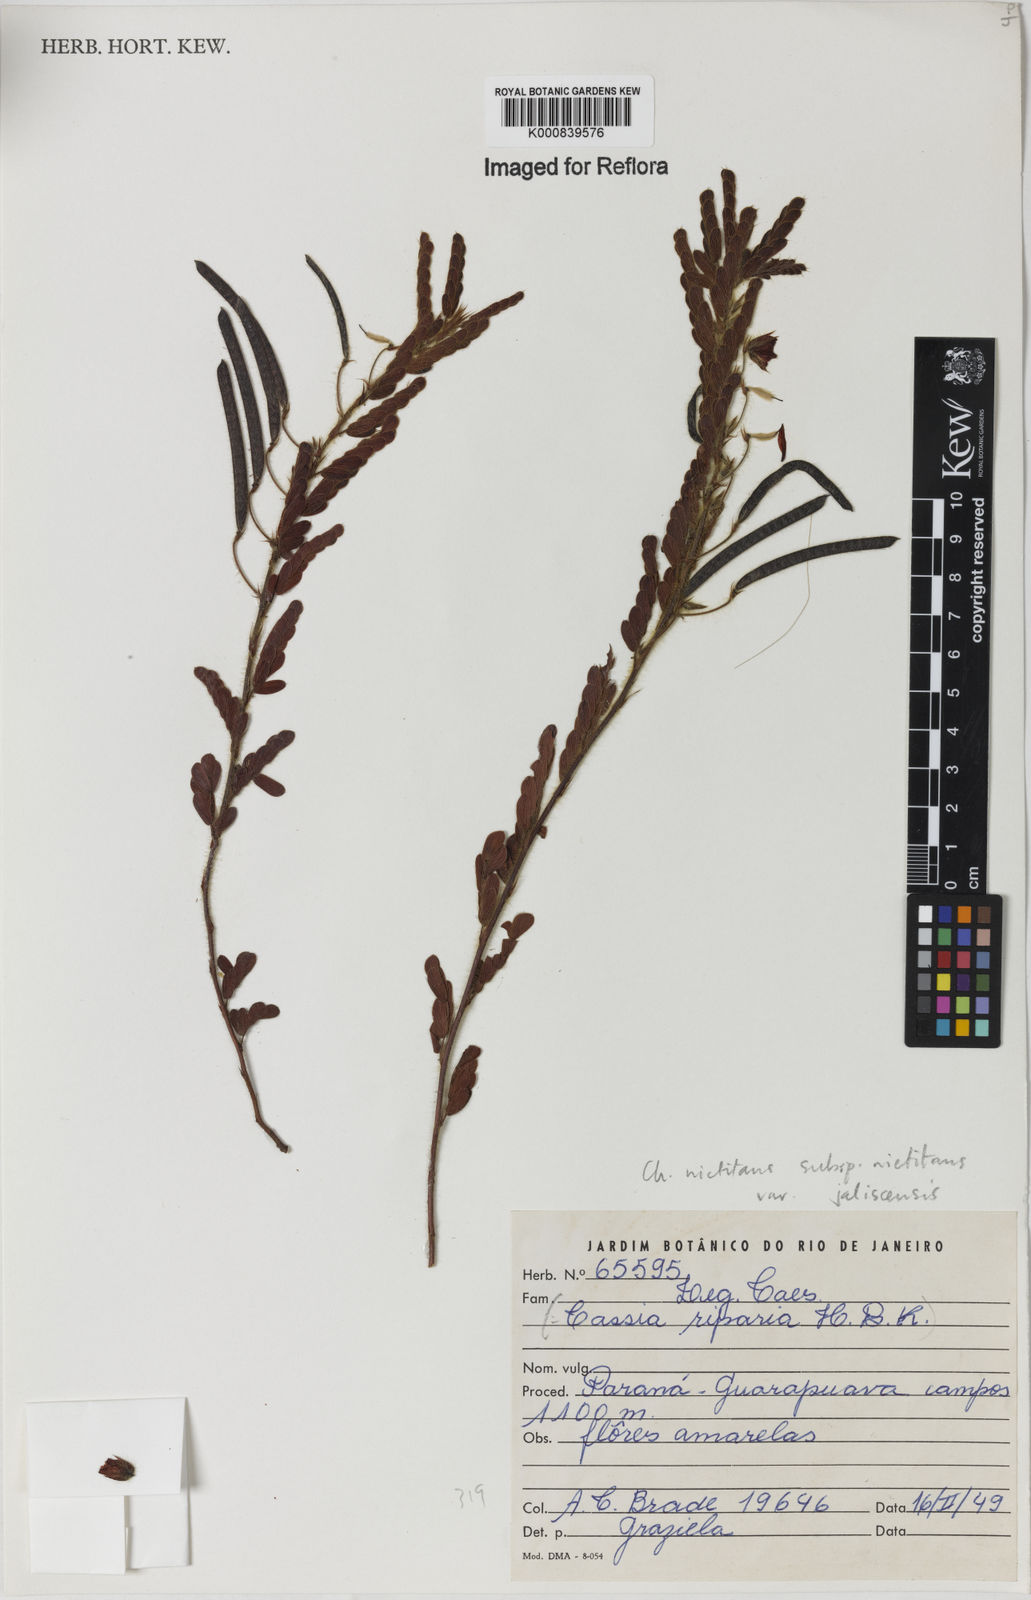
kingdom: Plantae
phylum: Tracheophyta
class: Magnoliopsida
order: Fabales
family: Fabaceae
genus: Chamaecrista
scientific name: Chamaecrista nictitans
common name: Sensitive cassia
